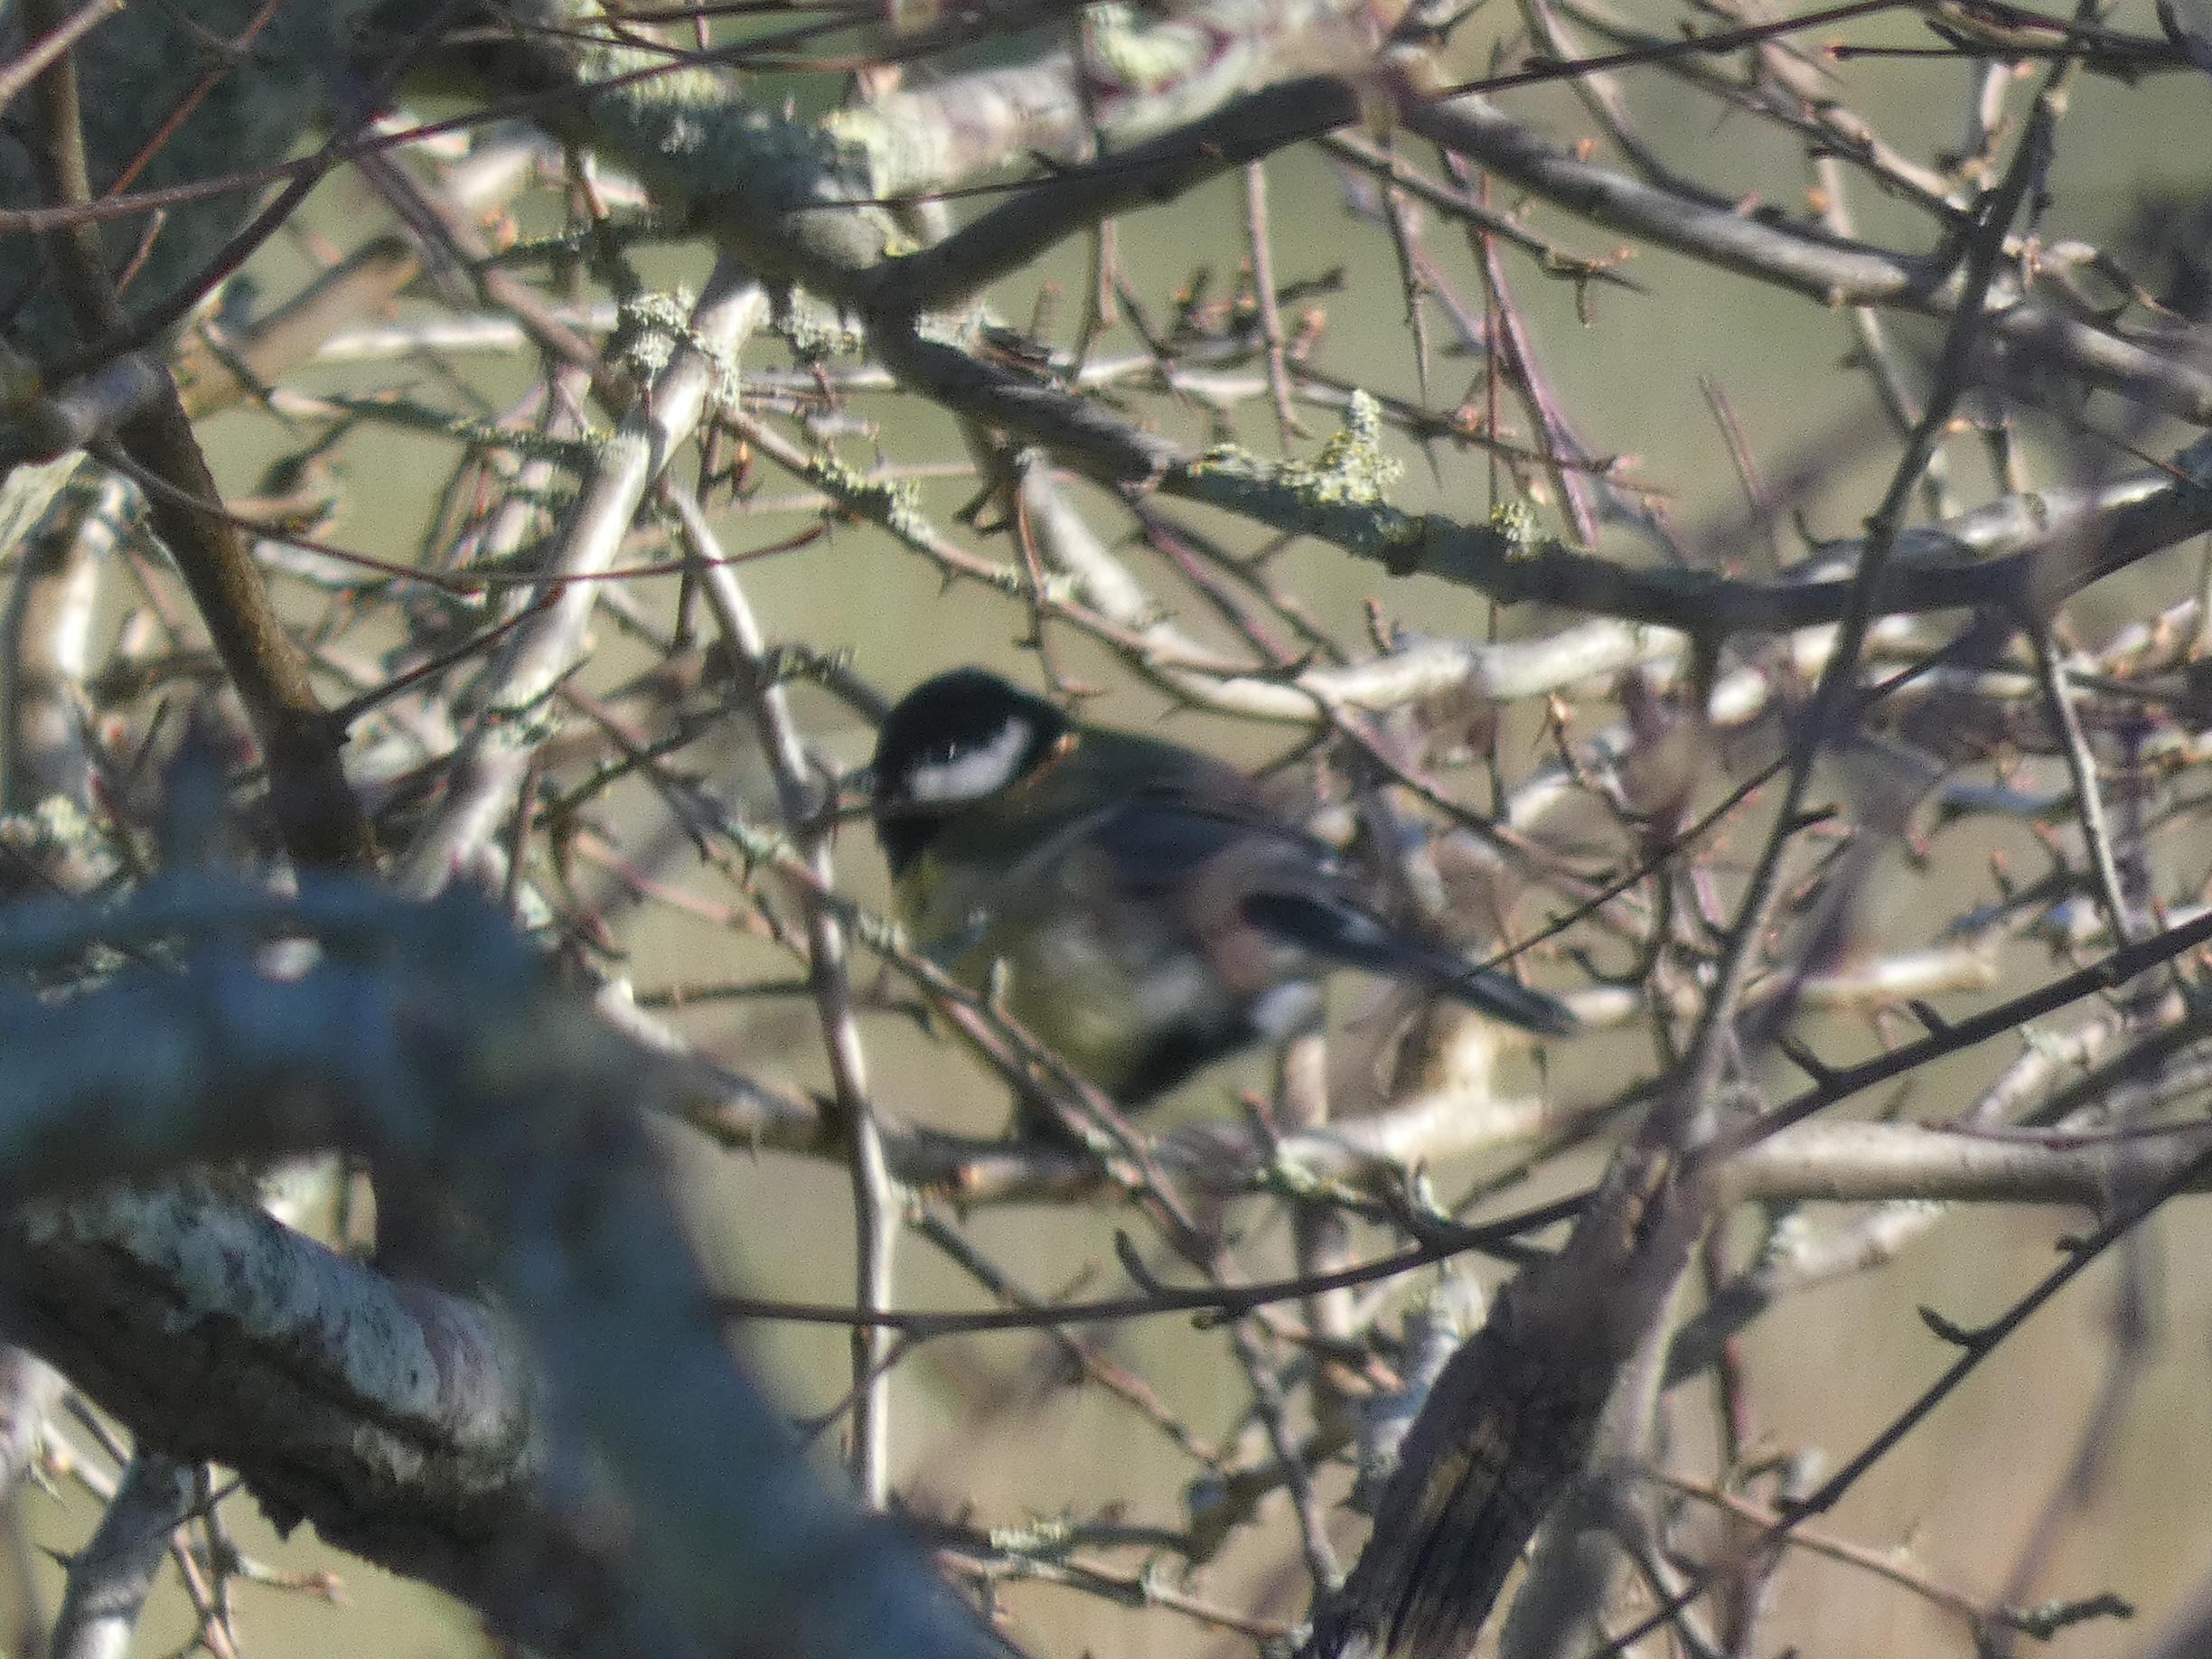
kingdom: Animalia
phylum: Chordata
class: Aves
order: Passeriformes
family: Paridae
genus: Parus
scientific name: Parus major
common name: Musvit
